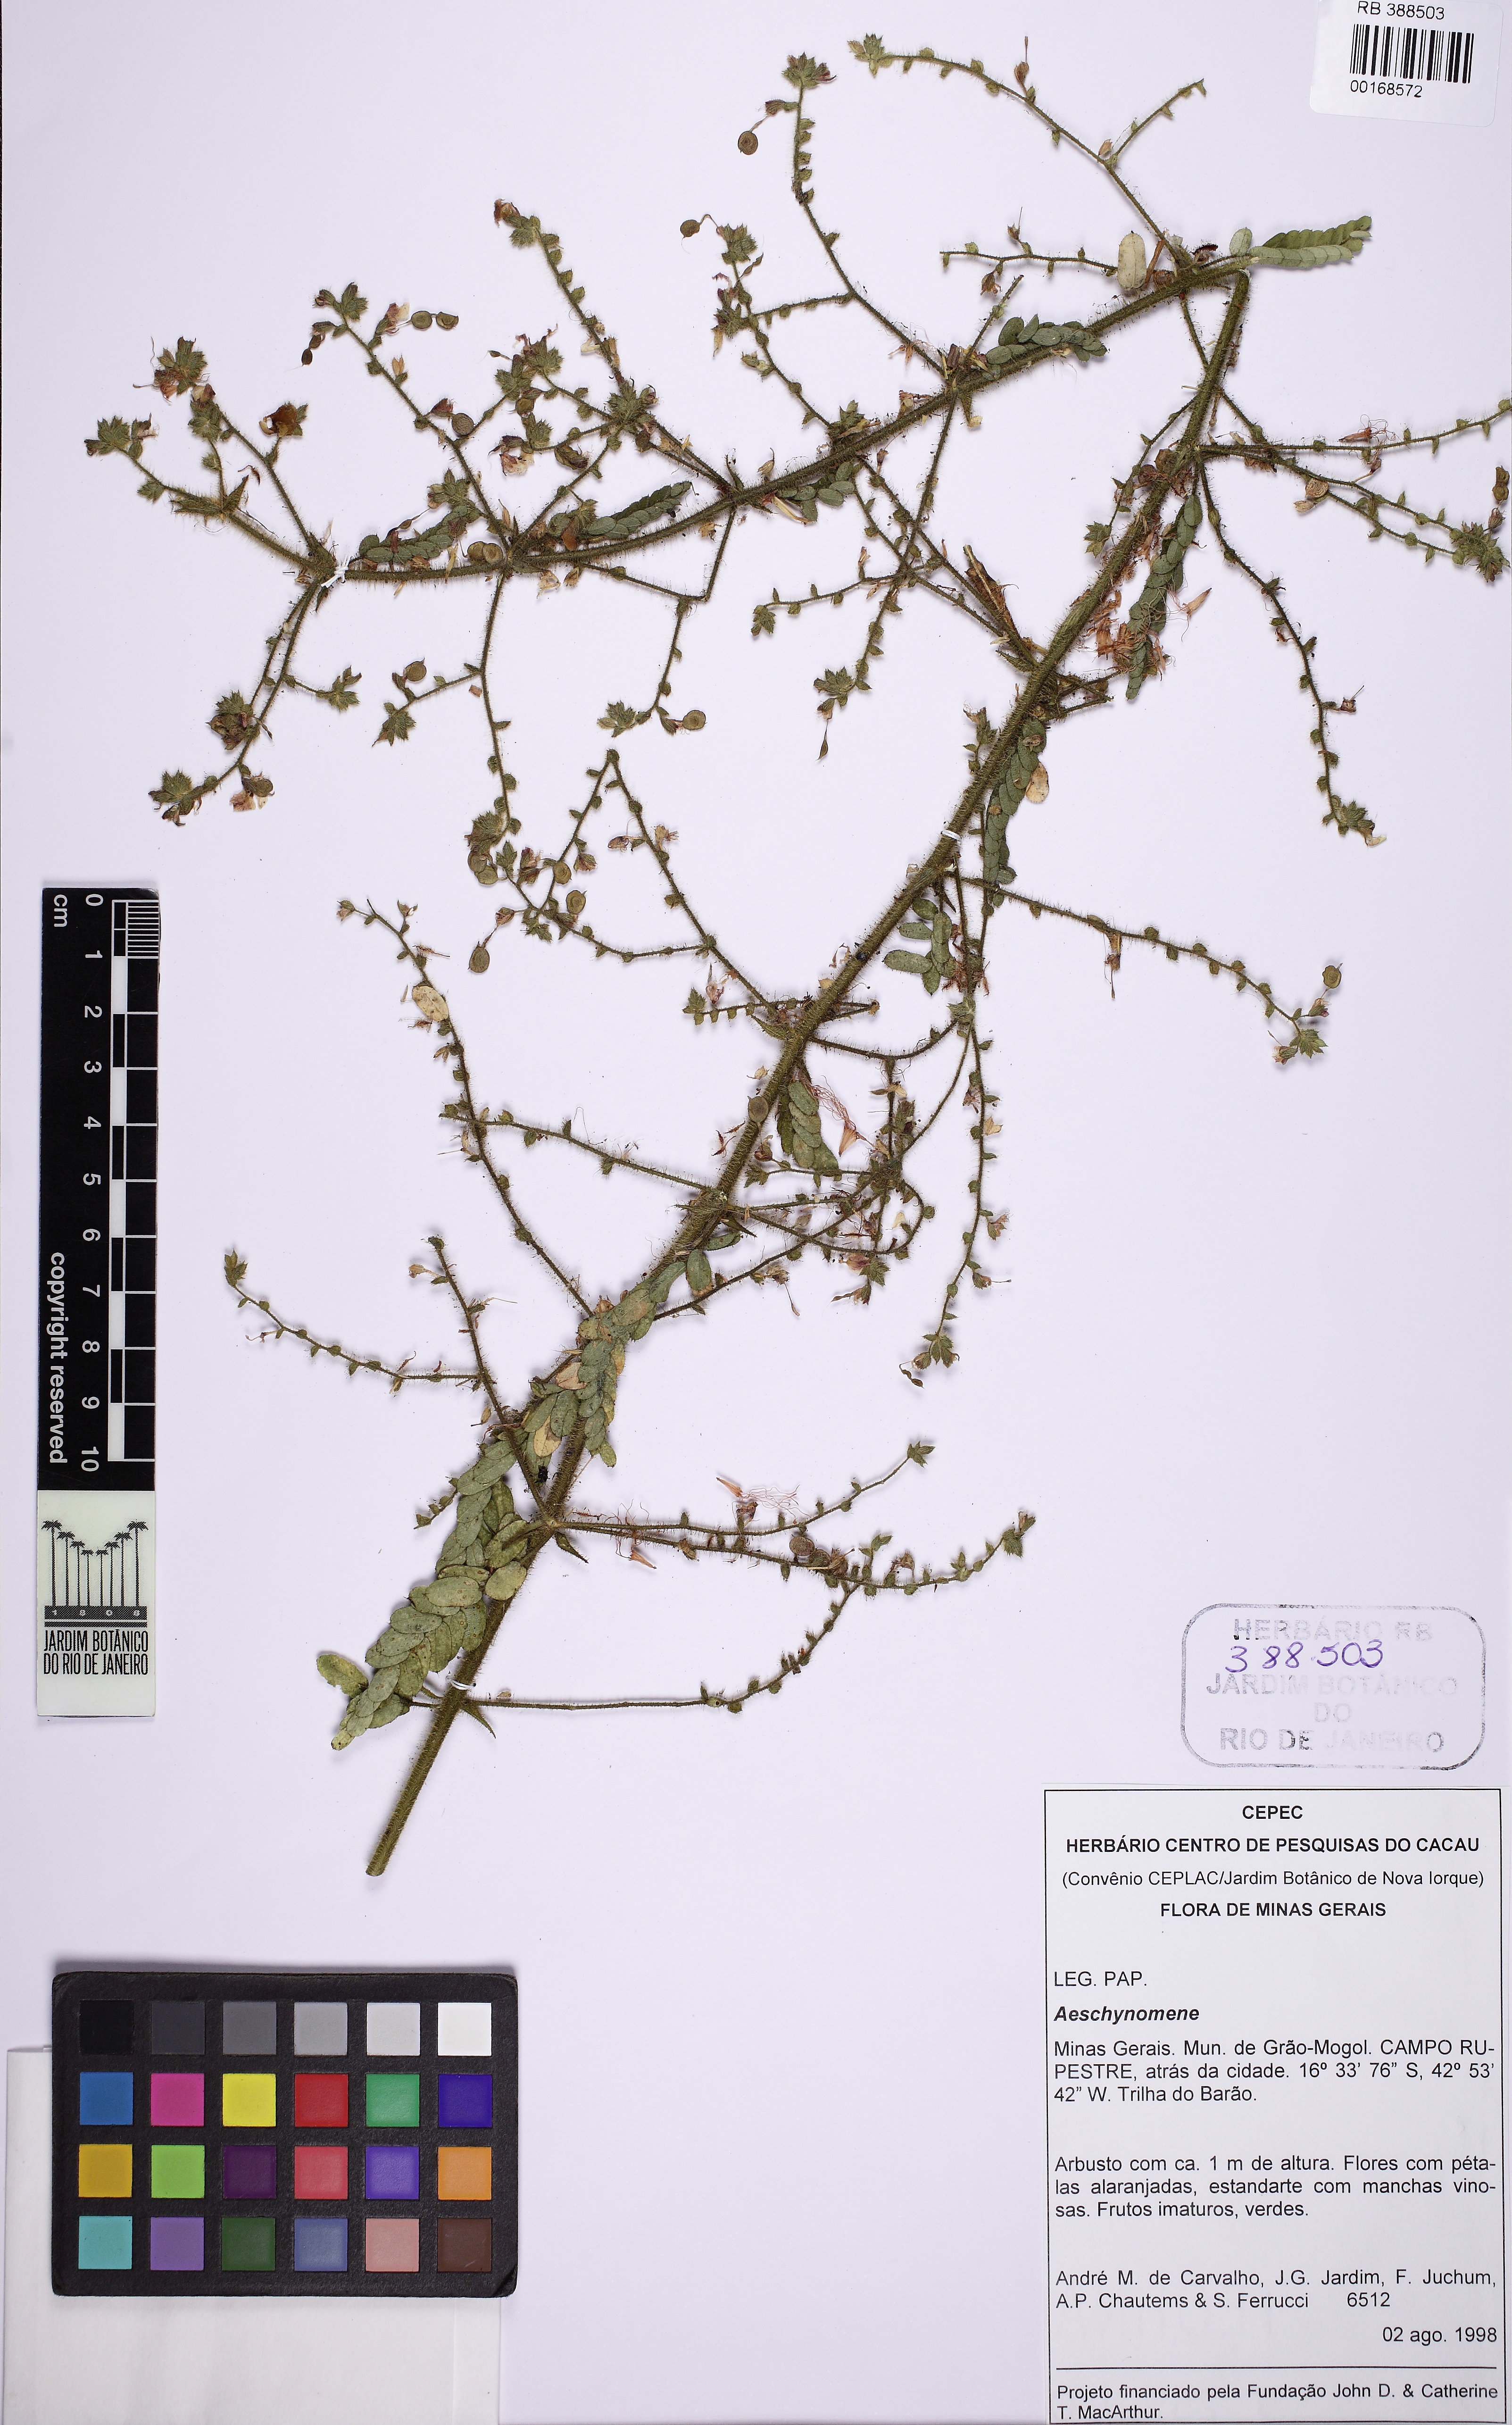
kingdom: Plantae
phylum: Tracheophyta
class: Magnoliopsida
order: Fabales
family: Fabaceae
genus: Aeschynomene
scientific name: Aeschynomene
